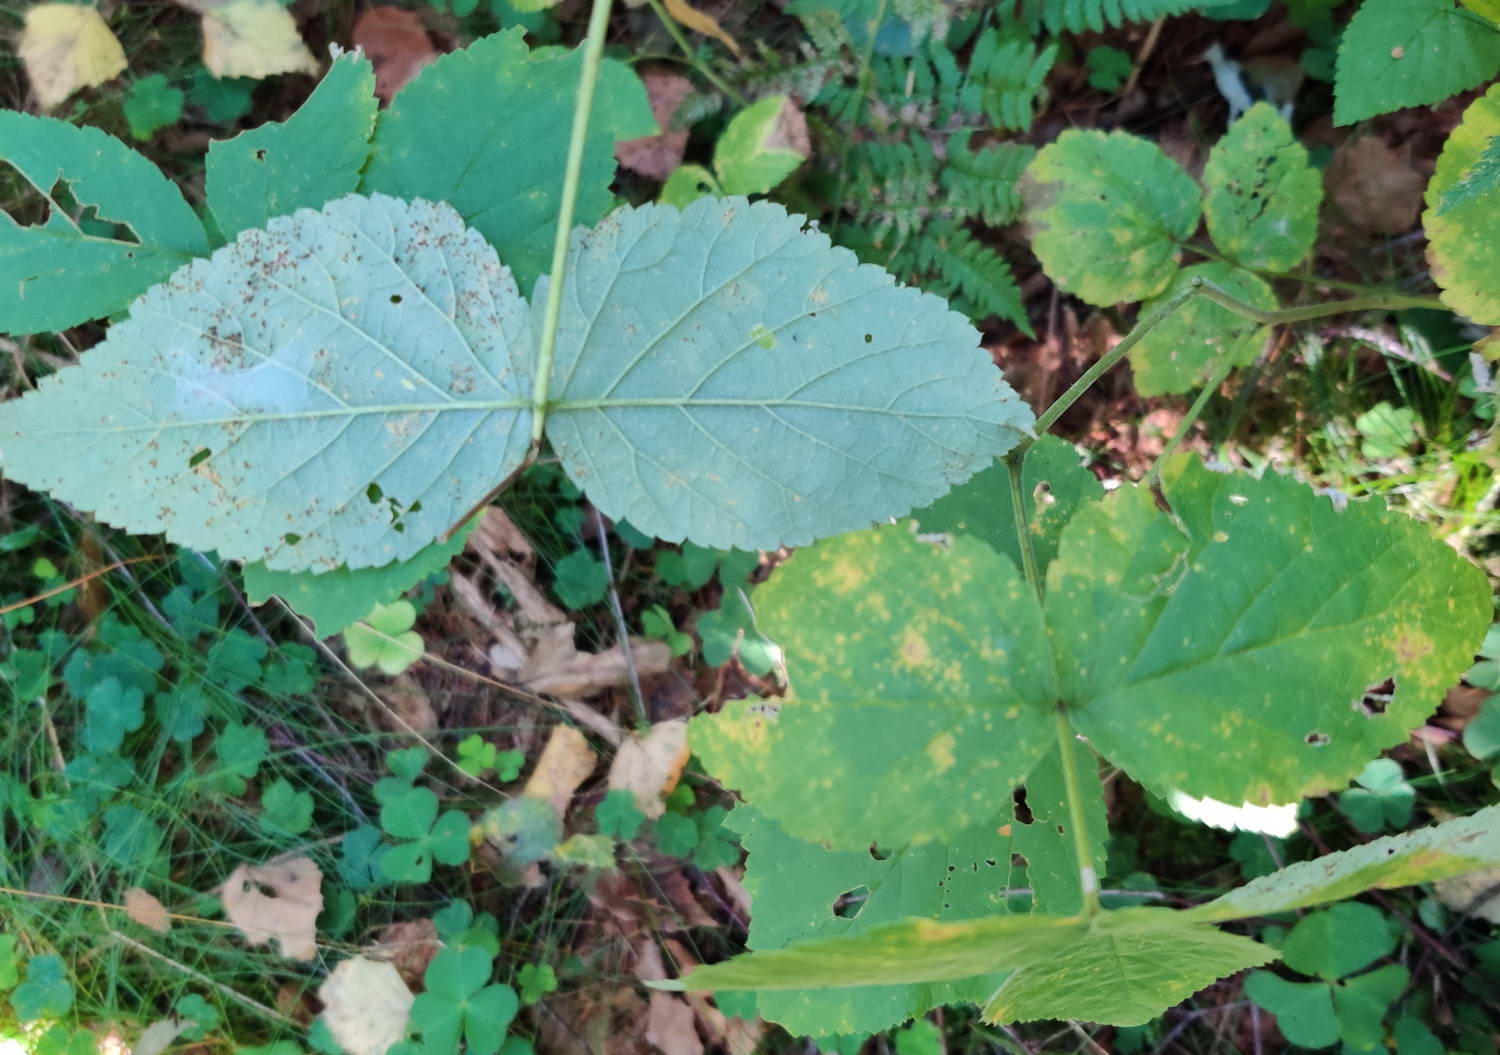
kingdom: Fungi
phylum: Basidiomycota
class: Pucciniomycetes
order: Pucciniales
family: Phragmidiaceae
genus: Phragmidium
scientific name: Phragmidium rubi-idaei
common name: hindbær-flercellerust
